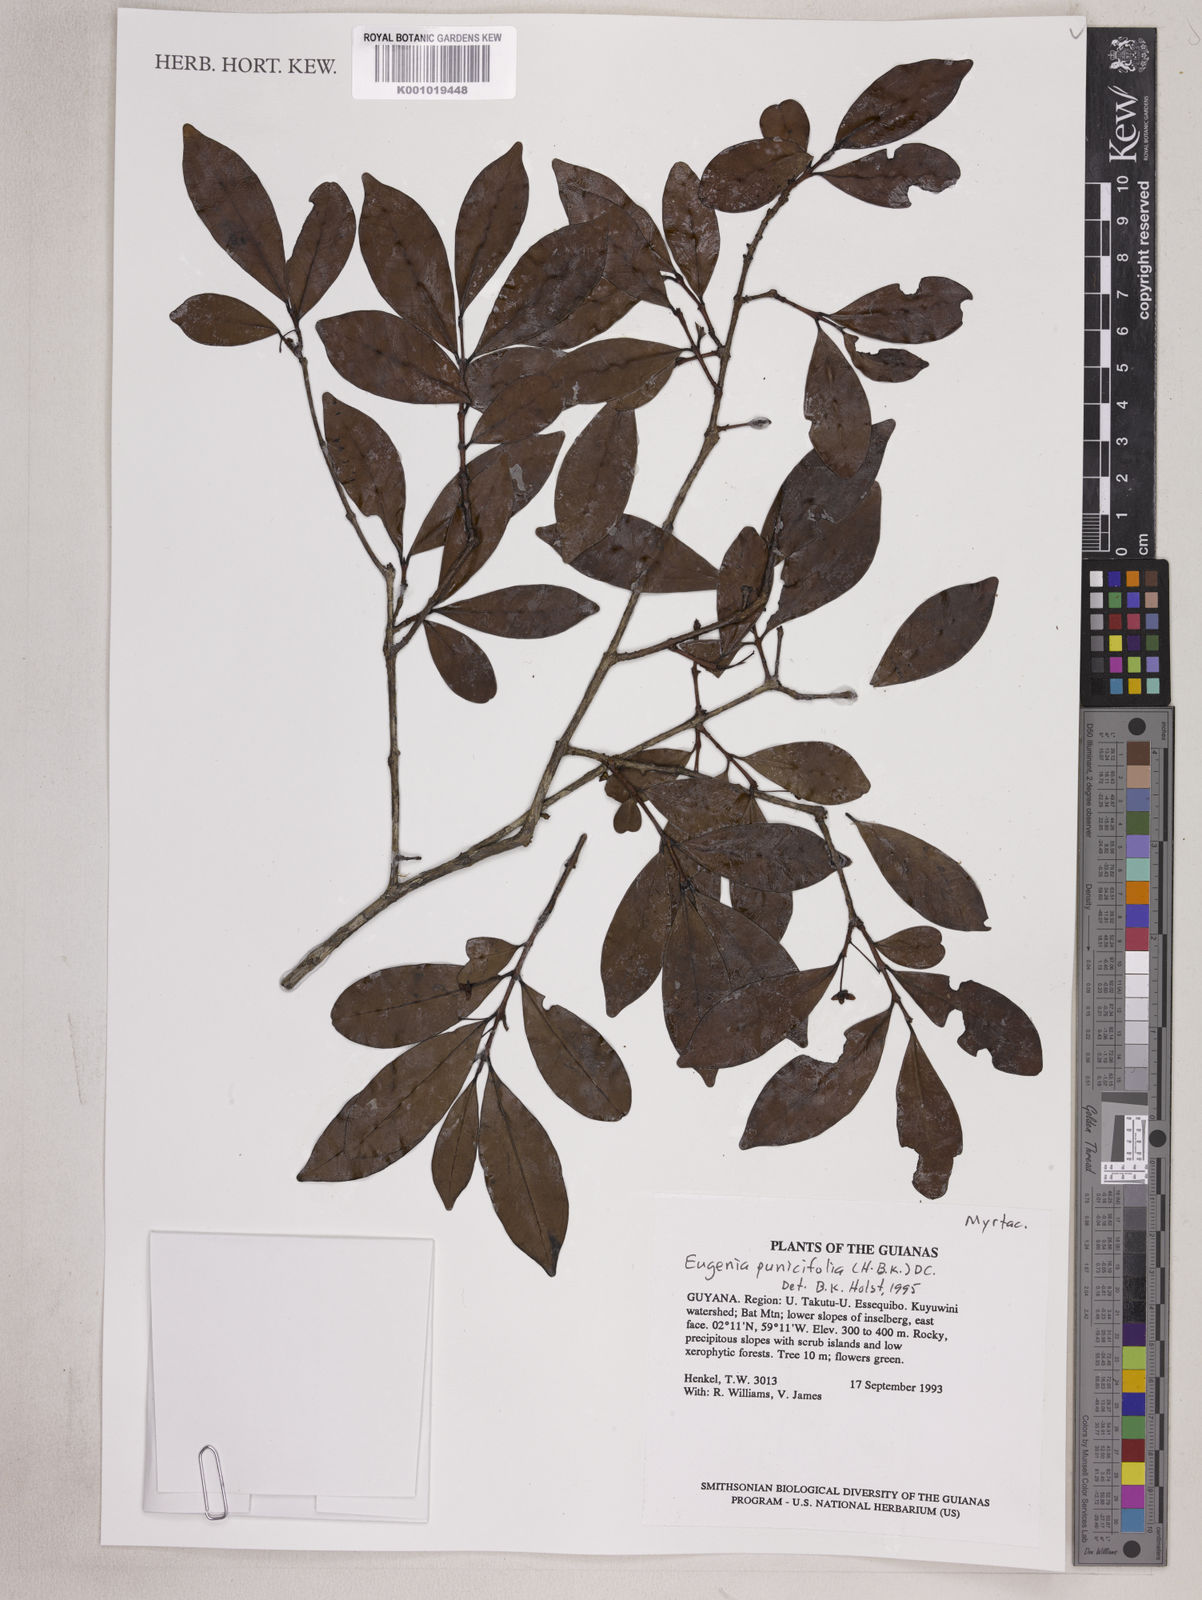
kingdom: Plantae
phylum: Tracheophyta
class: Magnoliopsida
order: Myrtales
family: Myrtaceae
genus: Eugenia
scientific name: Eugenia punicifolia
